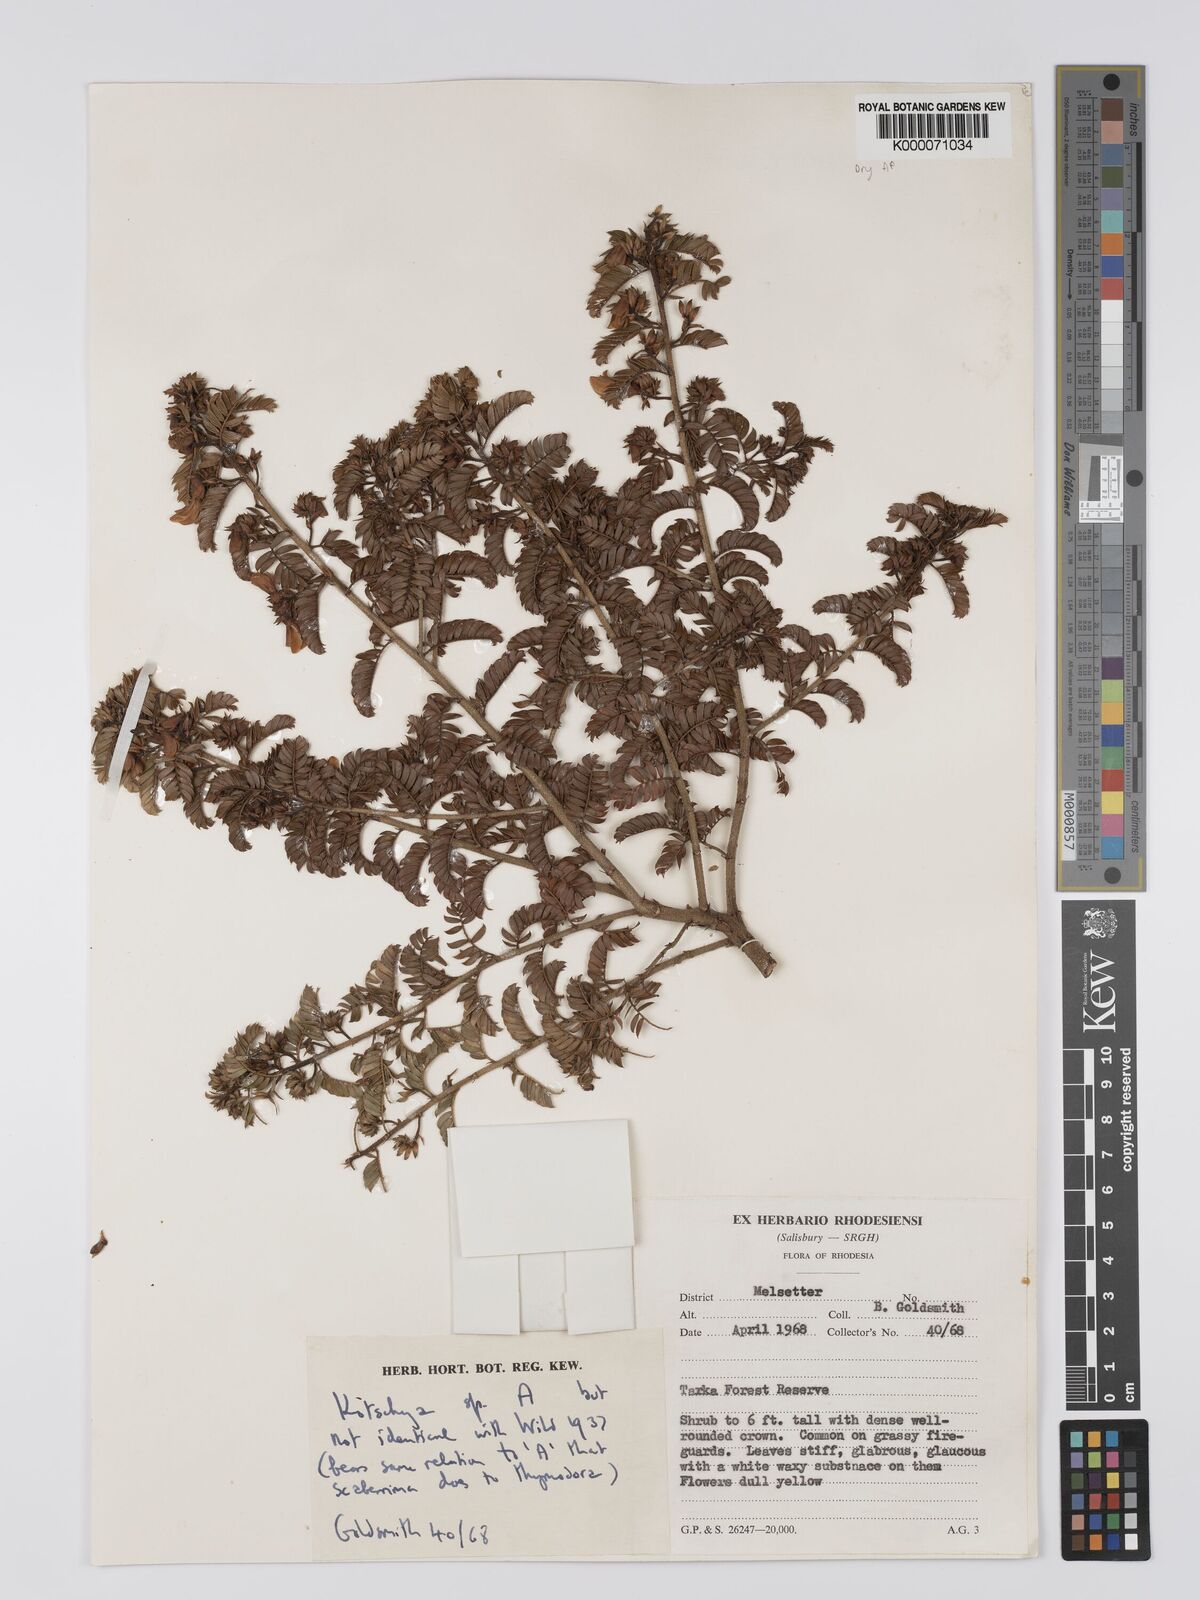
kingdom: Plantae
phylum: Tracheophyta
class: Magnoliopsida
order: Fabales
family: Fabaceae
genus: Kotschya
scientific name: Kotschya
